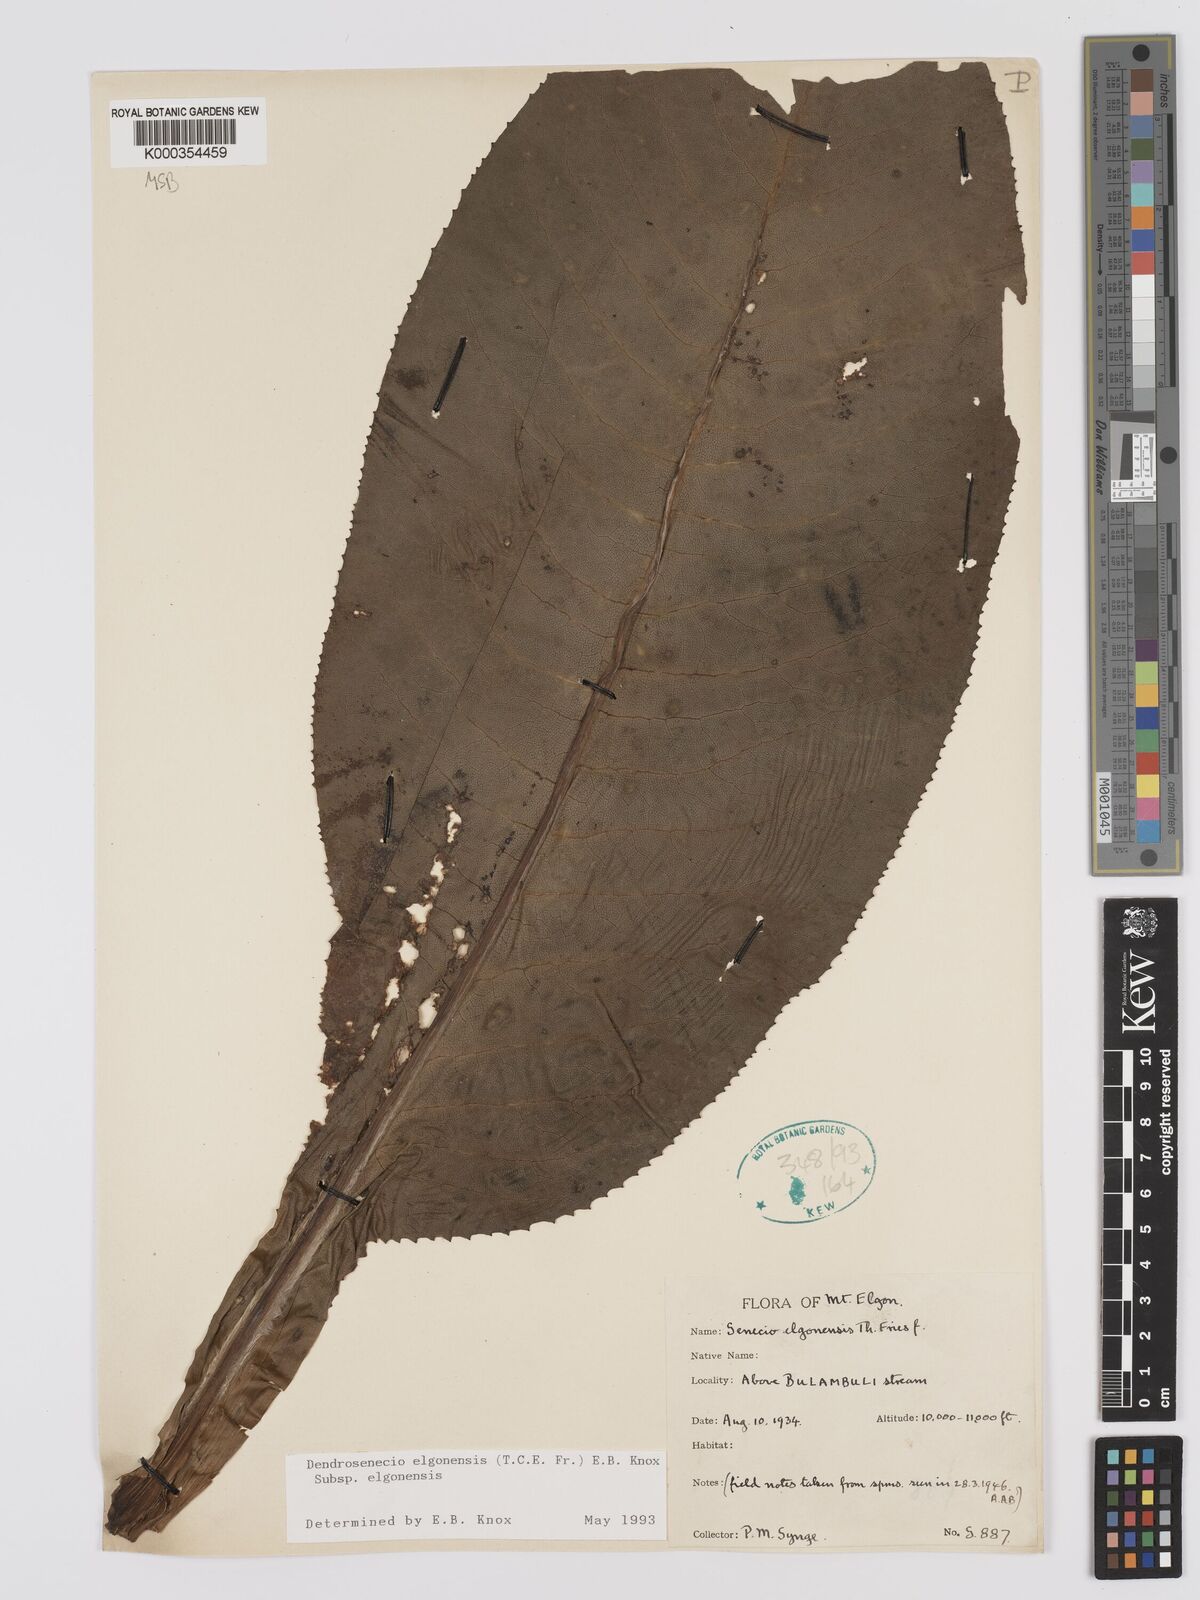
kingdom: Plantae
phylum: Tracheophyta
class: Magnoliopsida
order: Asterales
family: Asteraceae
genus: Dendrosenecio
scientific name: Dendrosenecio elgonensis
